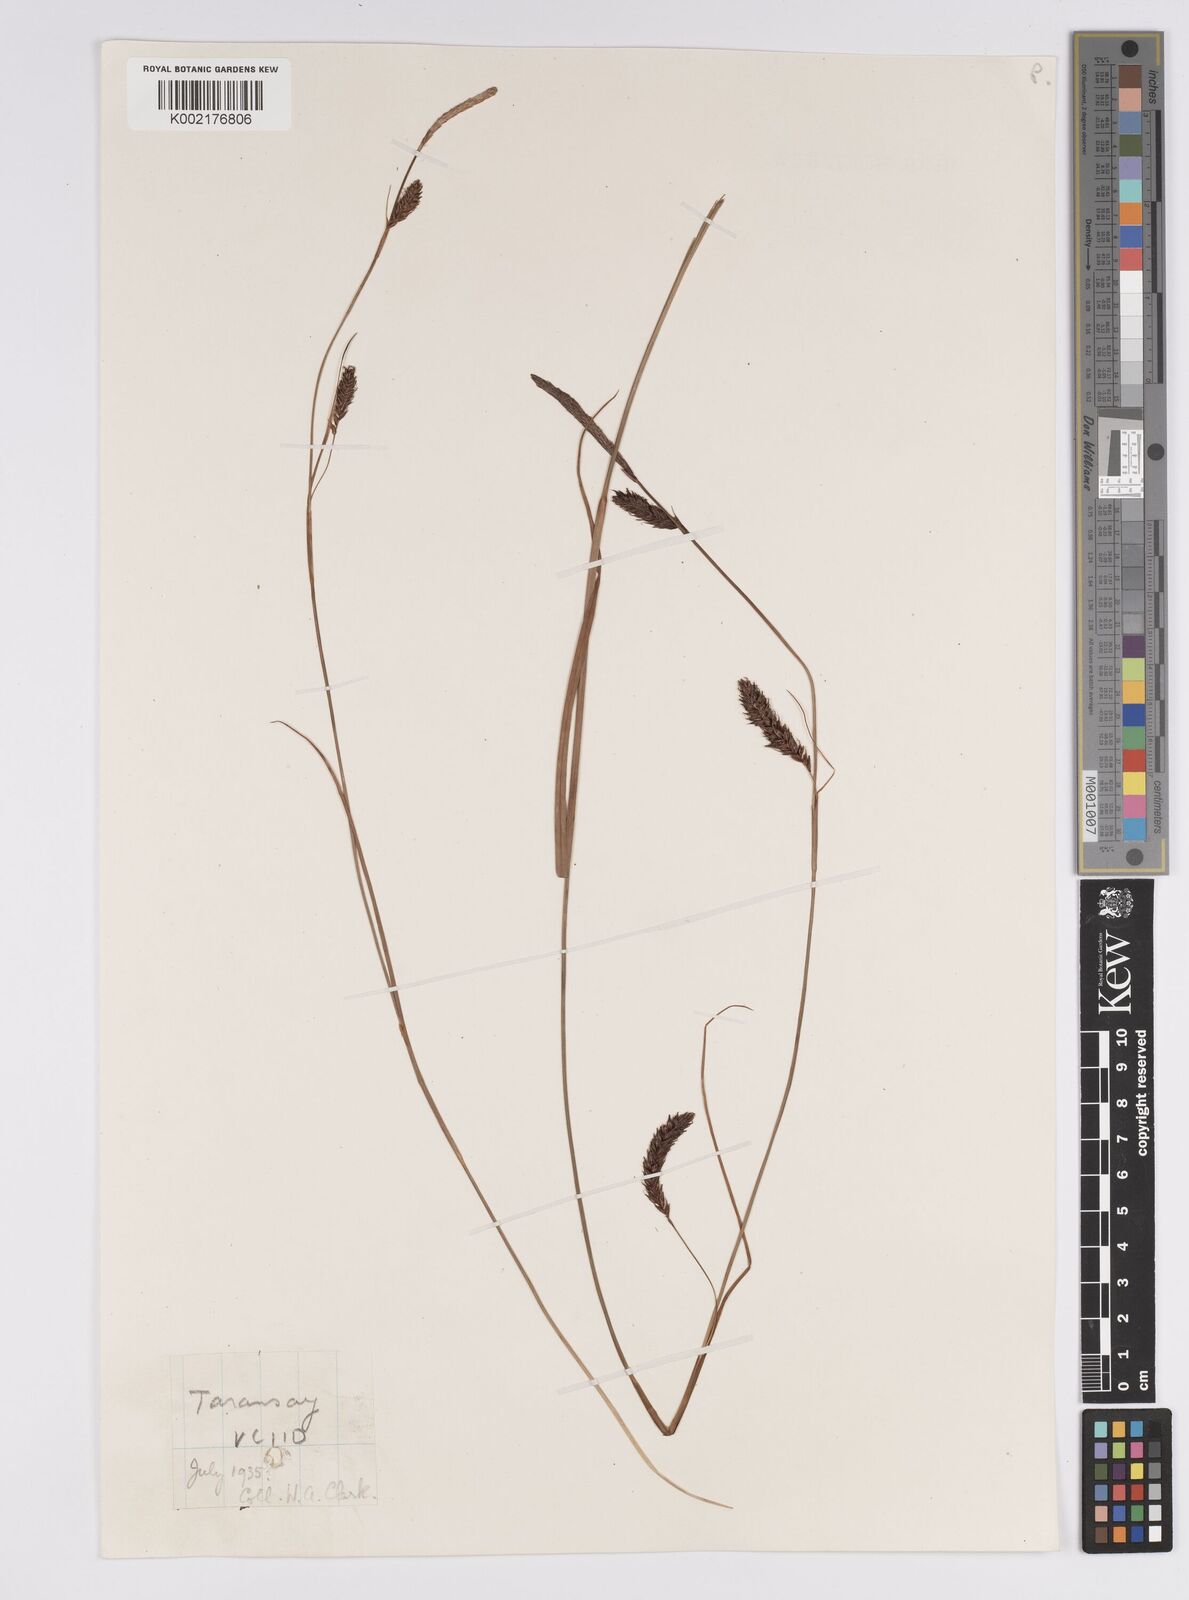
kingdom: Plantae
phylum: Tracheophyta
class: Liliopsida
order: Poales
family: Cyperaceae
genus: Carex
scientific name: Carex binervis
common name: Green-ribbed sedge
